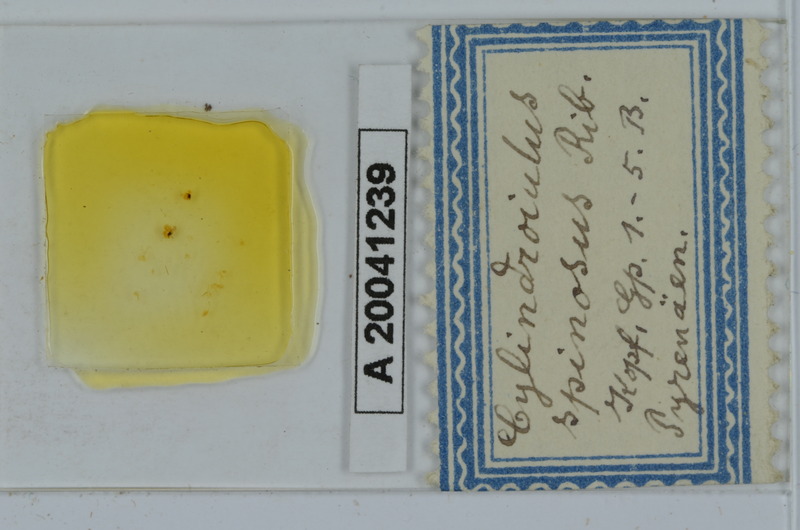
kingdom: Animalia
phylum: Arthropoda
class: Diplopoda
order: Julida
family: Julidae
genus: Allajulus
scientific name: Allajulus spinosus
